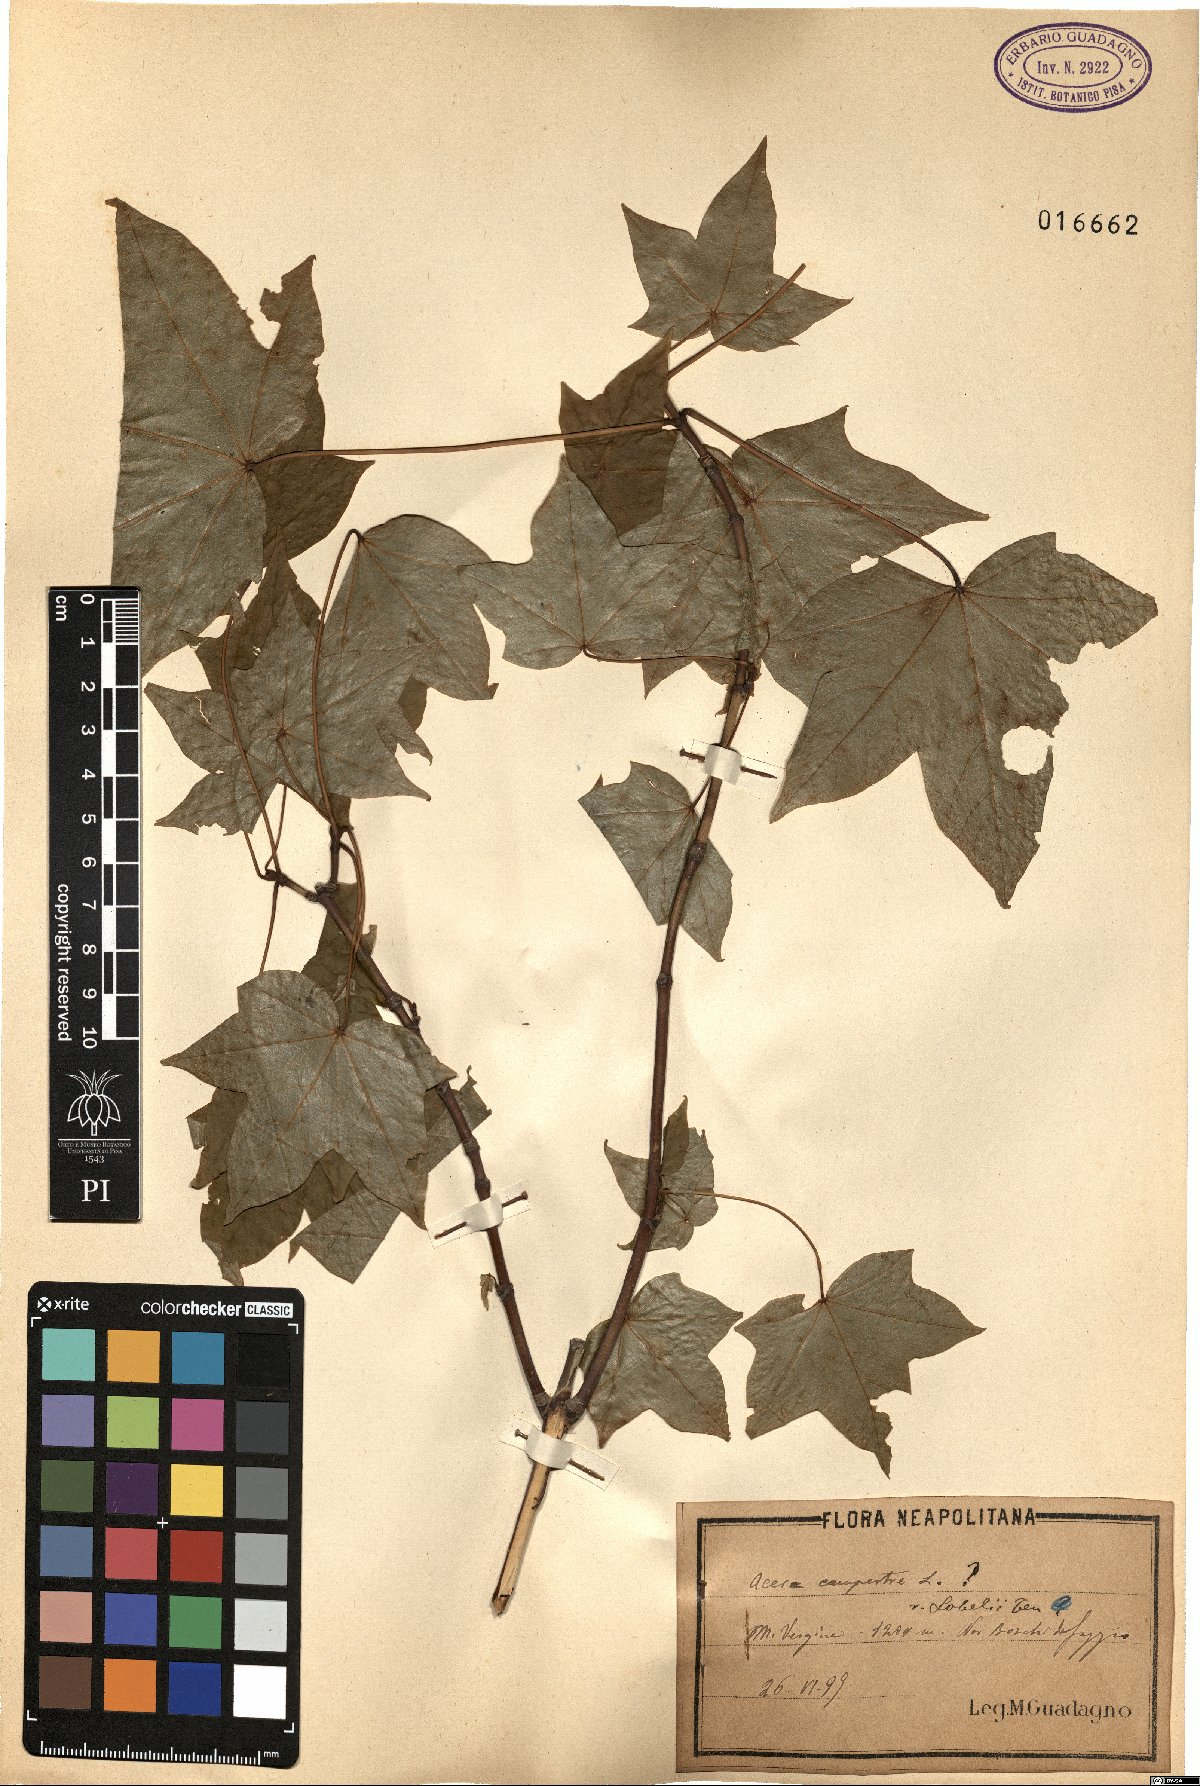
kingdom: Plantae
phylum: Tracheophyta
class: Magnoliopsida
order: Sapindales
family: Sapindaceae
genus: Acer
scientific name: Acer
